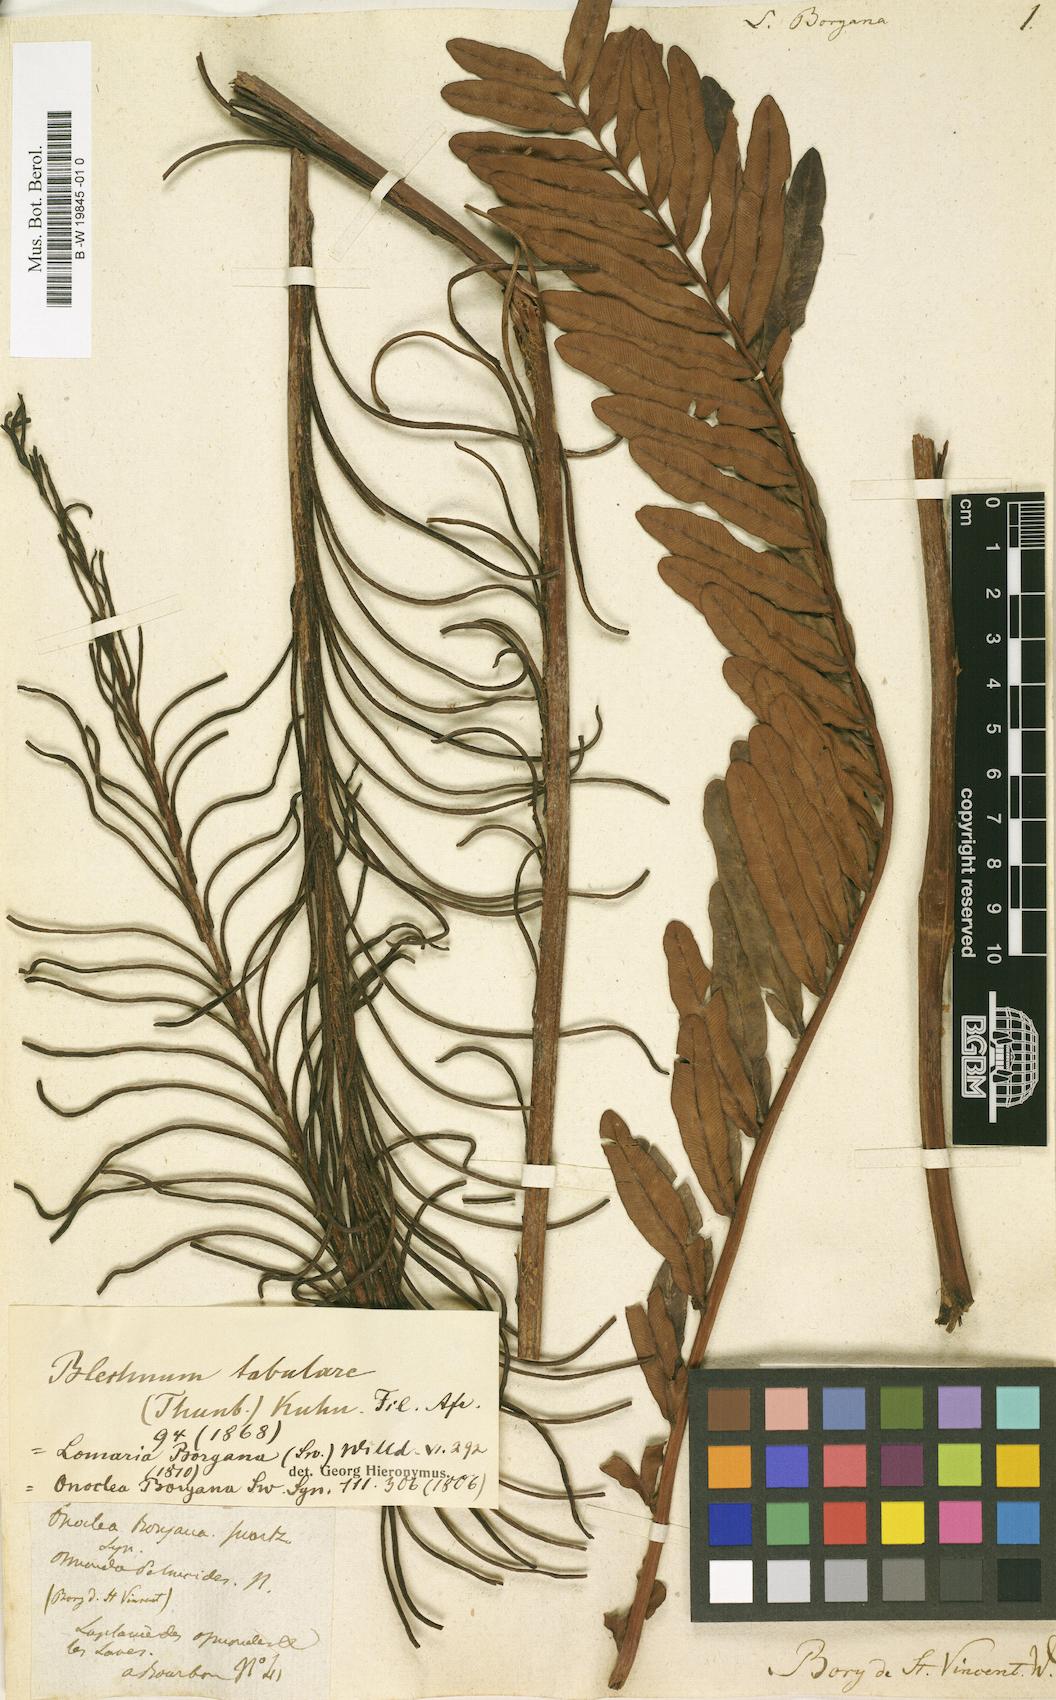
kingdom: Plantae
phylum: Tracheophyta
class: Polypodiopsida
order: Polypodiales
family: Blechnaceae
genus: Lomariocycas
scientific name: Lomariocycas tabularis
